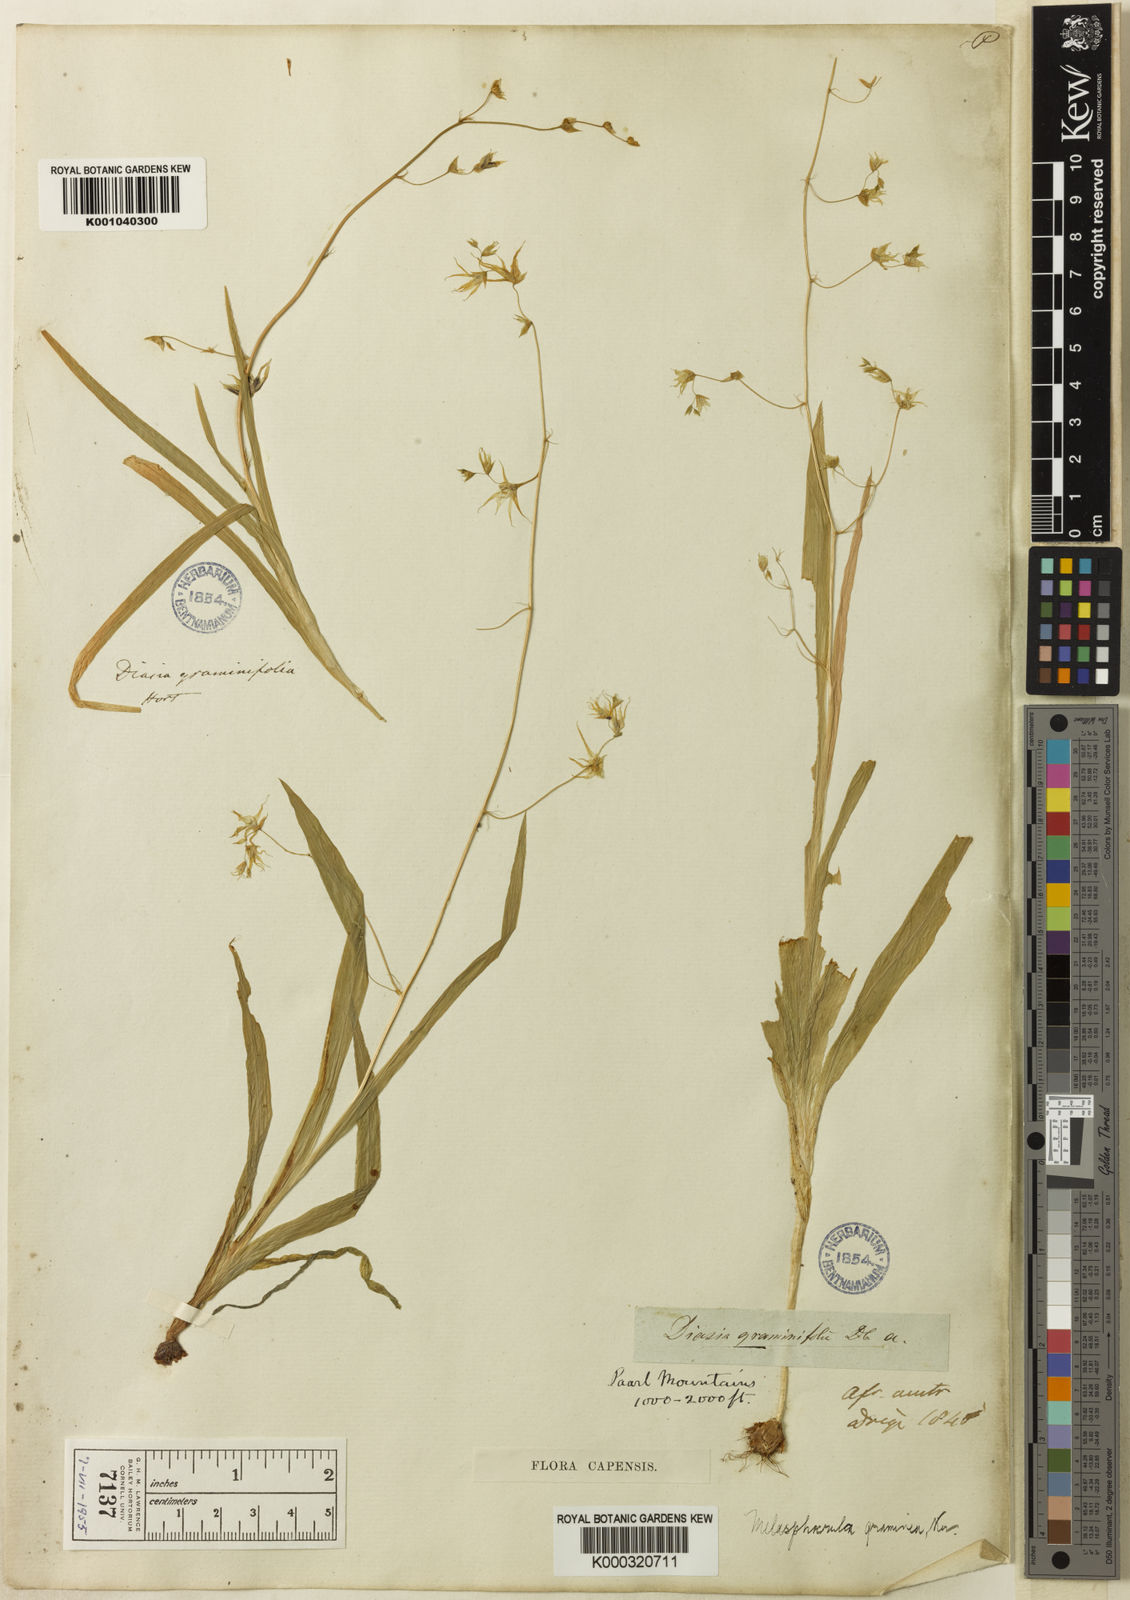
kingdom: Plantae
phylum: Tracheophyta
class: Liliopsida
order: Asparagales
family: Iridaceae
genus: Melasphaerula
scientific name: Melasphaerula graminea
